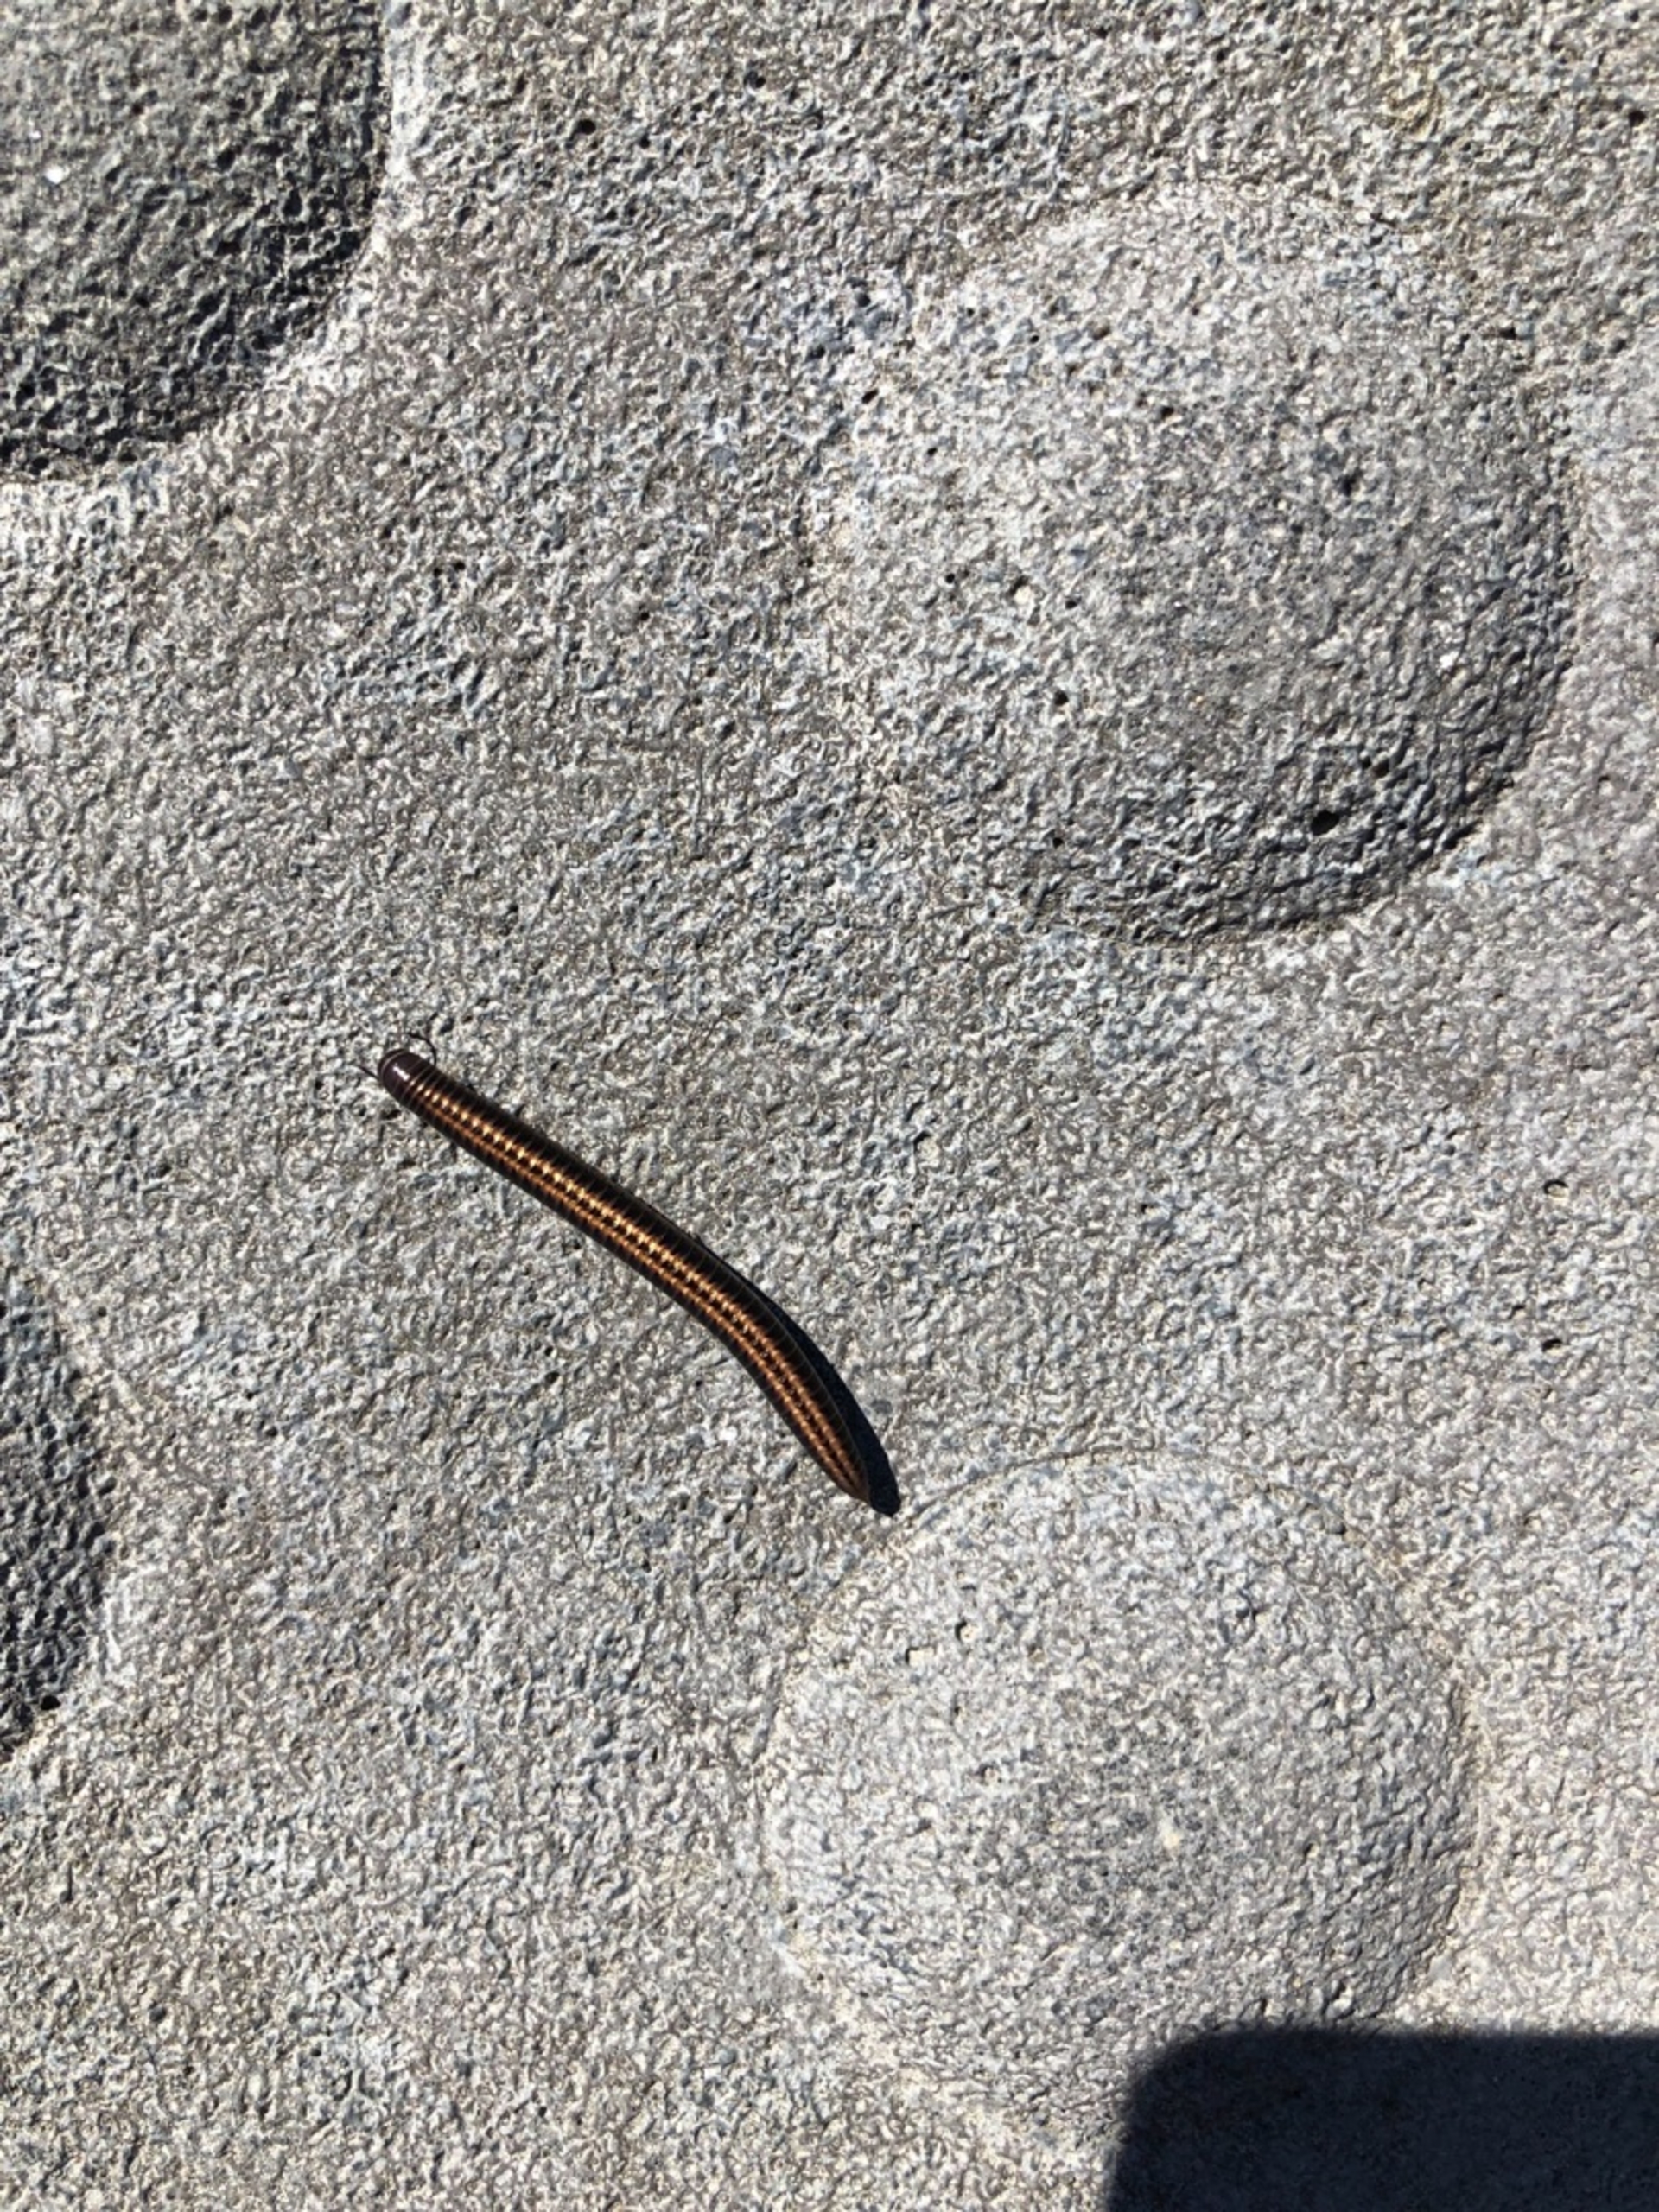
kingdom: Animalia
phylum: Arthropoda
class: Diplopoda
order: Julida
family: Julidae
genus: Ommatoiulus
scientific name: Ommatoiulus sabulosus
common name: Stor bånd-tusindben
